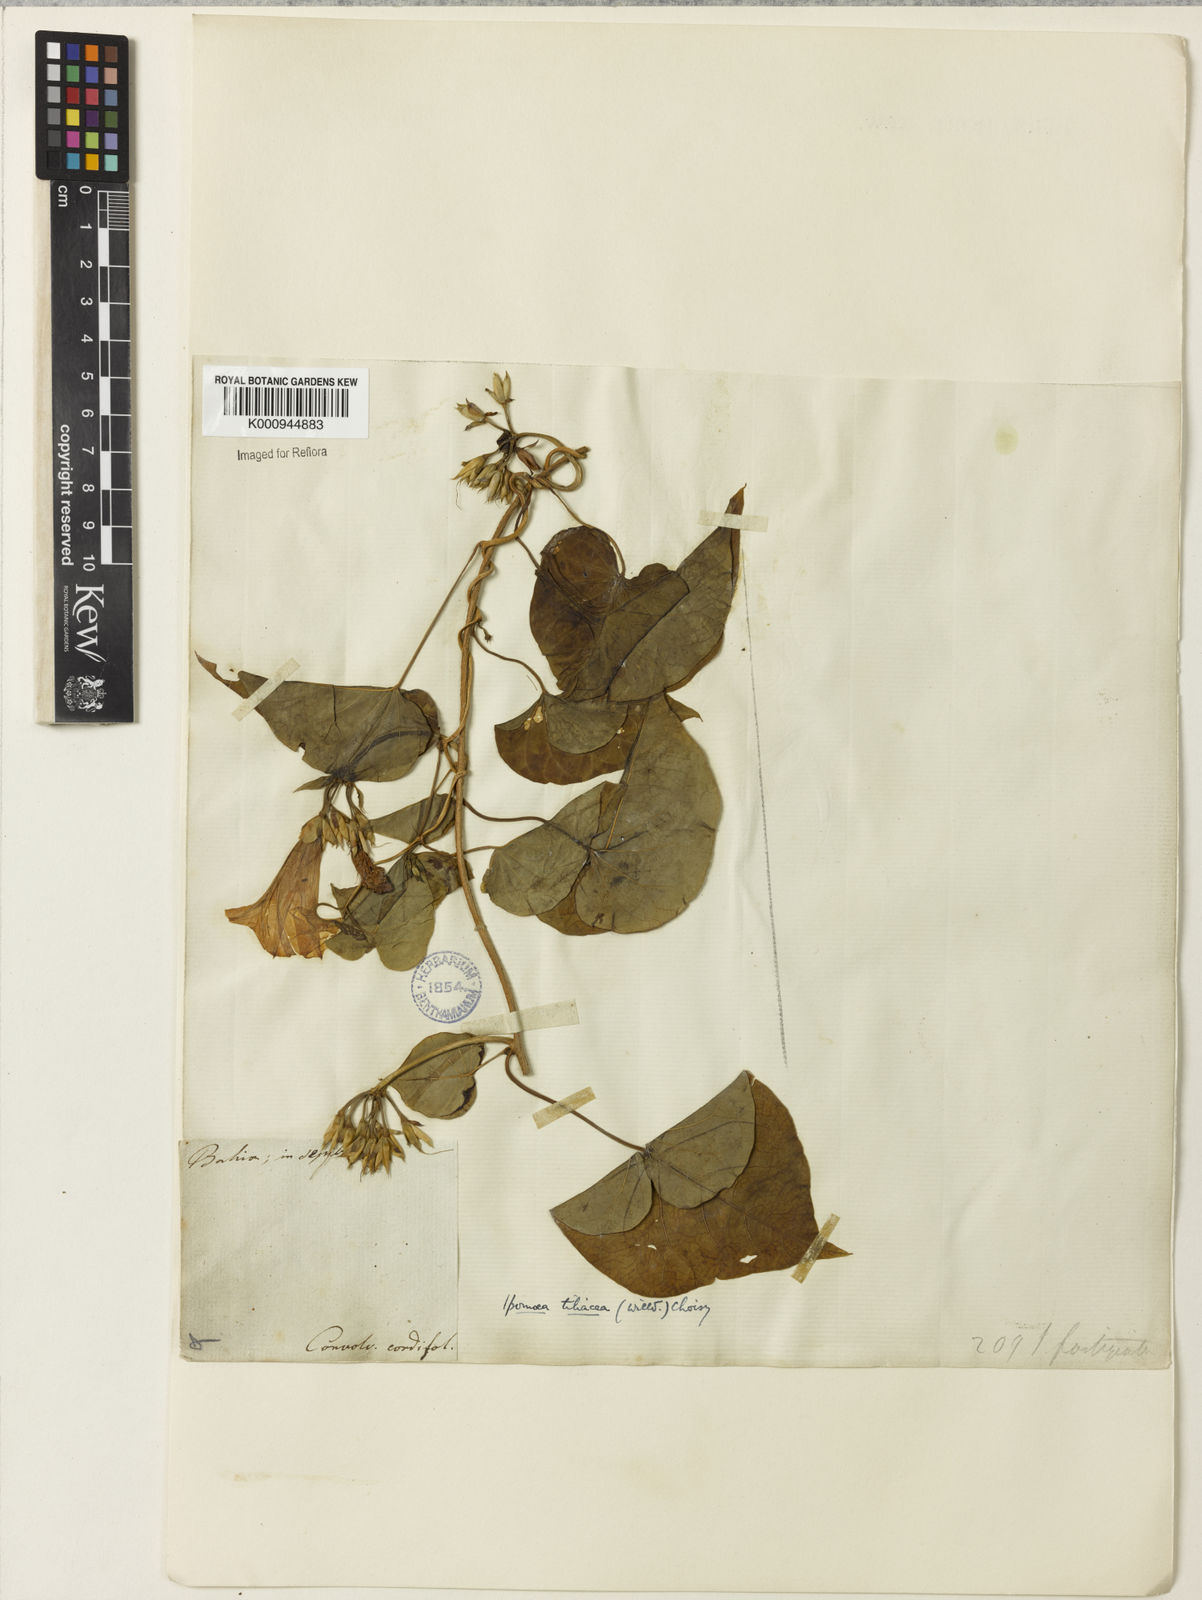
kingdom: Plantae
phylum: Tracheophyta
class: Magnoliopsida
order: Solanales
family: Convolvulaceae
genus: Ipomoea
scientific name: Ipomoea tiliacea
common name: Wild potato vine
